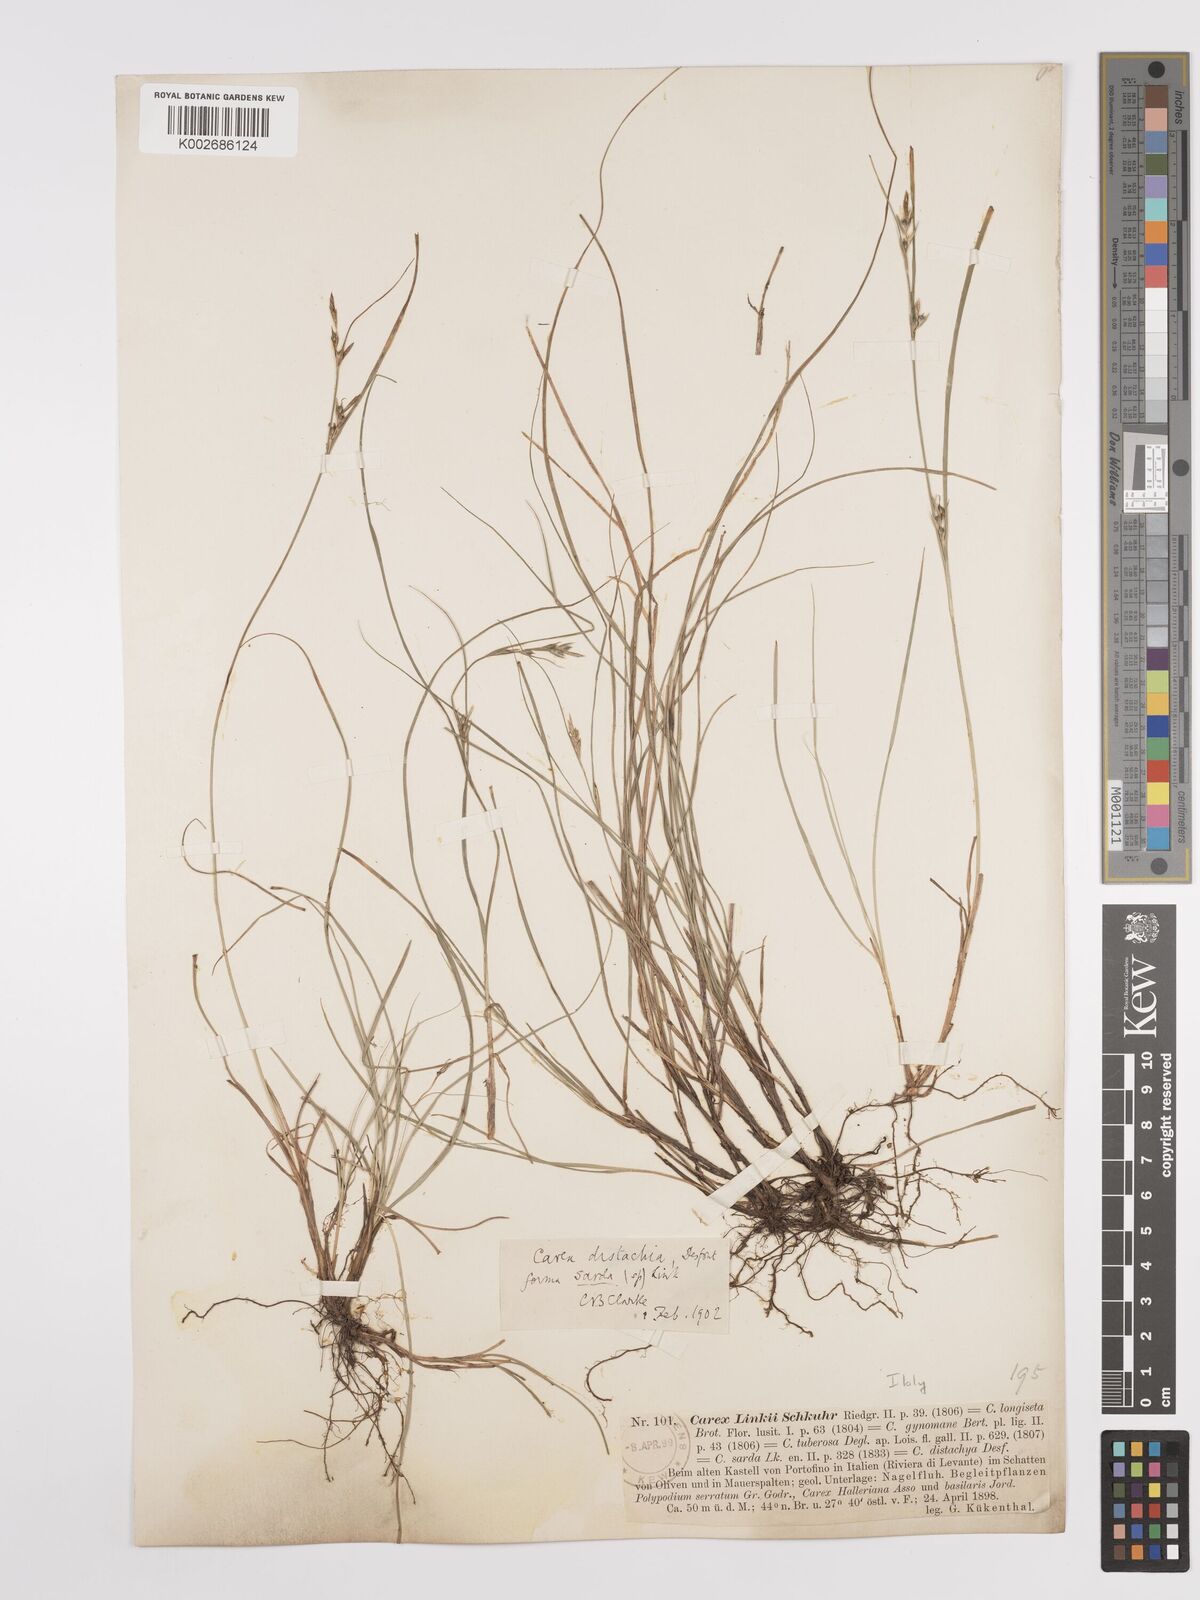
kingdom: Plantae
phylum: Tracheophyta
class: Liliopsida
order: Poales
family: Cyperaceae
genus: Carex
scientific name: Carex distachya
